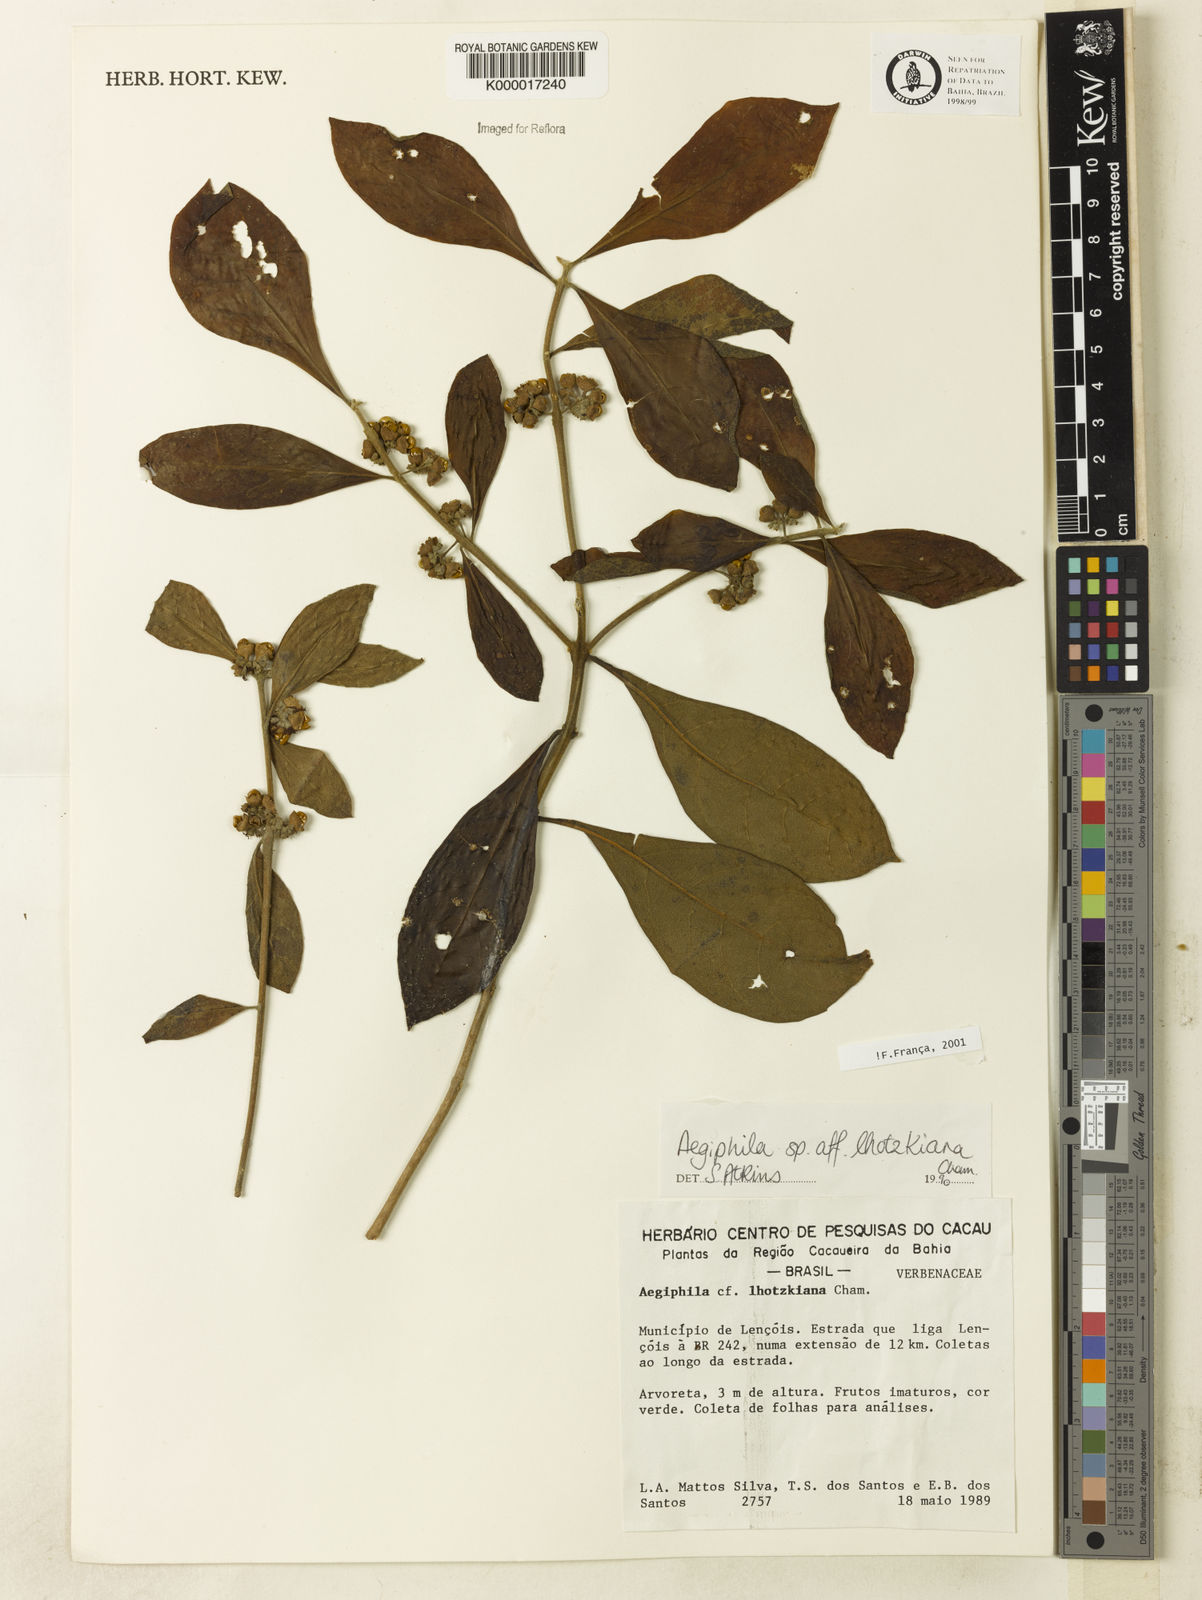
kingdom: Plantae
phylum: Tracheophyta
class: Magnoliopsida
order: Lamiales
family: Lamiaceae
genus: Aegiphila
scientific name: Aegiphila verticillata
